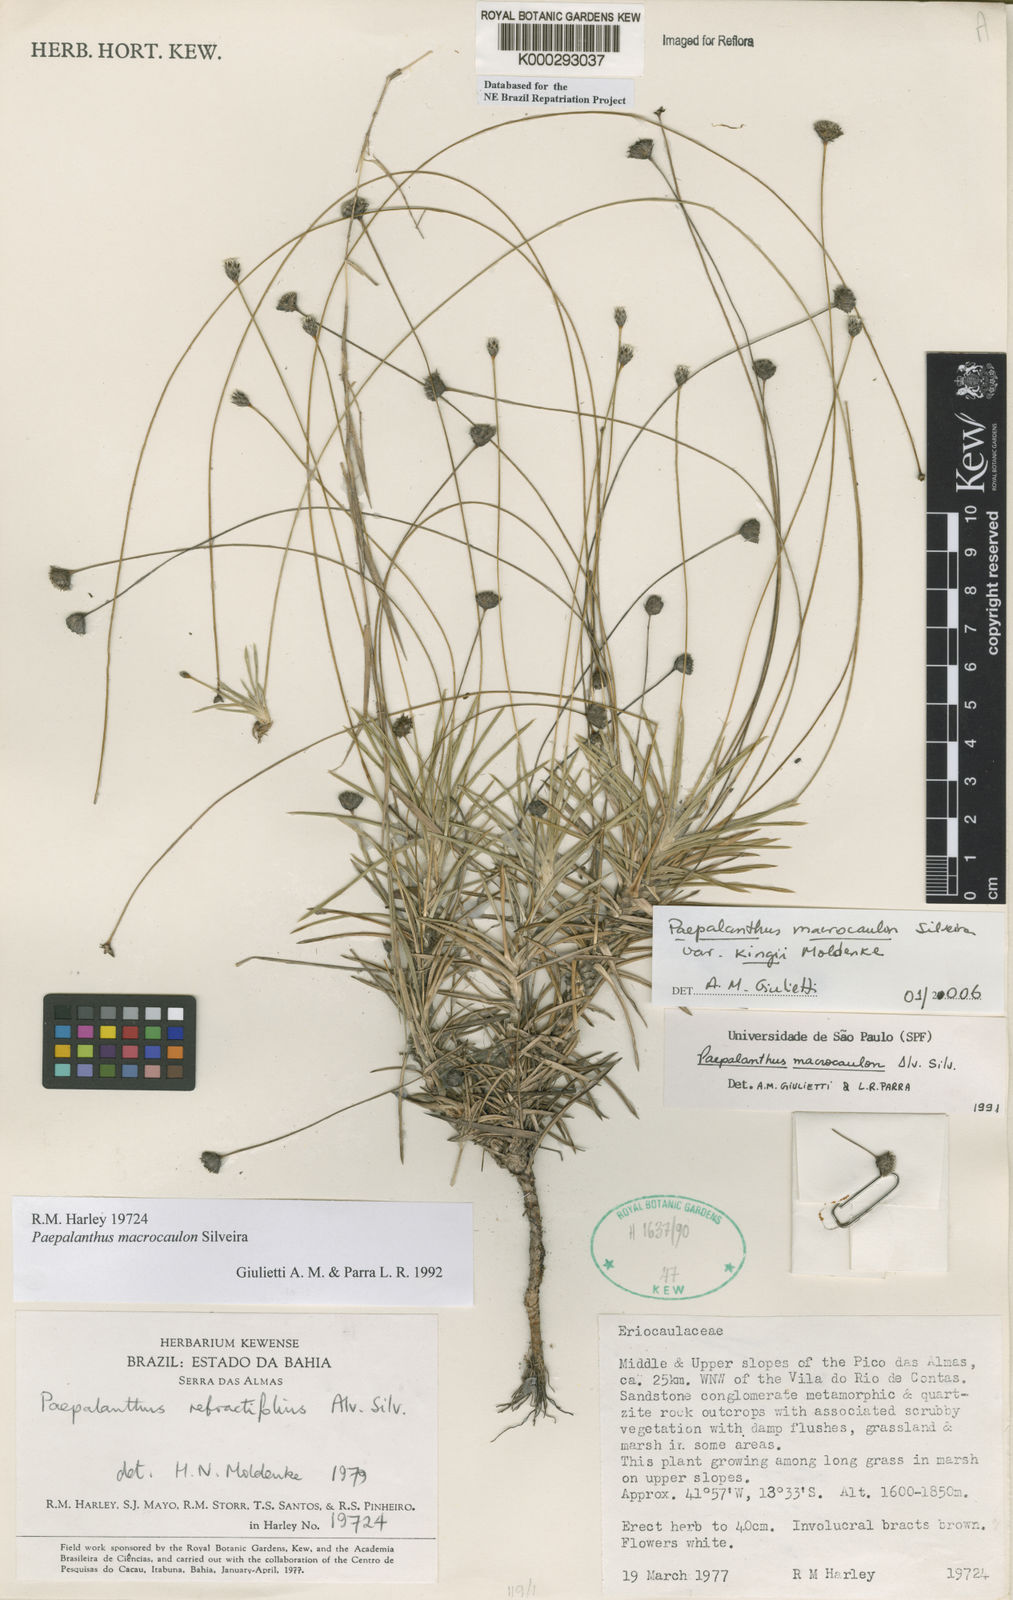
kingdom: Plantae
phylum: Tracheophyta
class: Liliopsida
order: Poales
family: Eriocaulaceae
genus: Paepalanthus
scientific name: Paepalanthus macrocaulon
